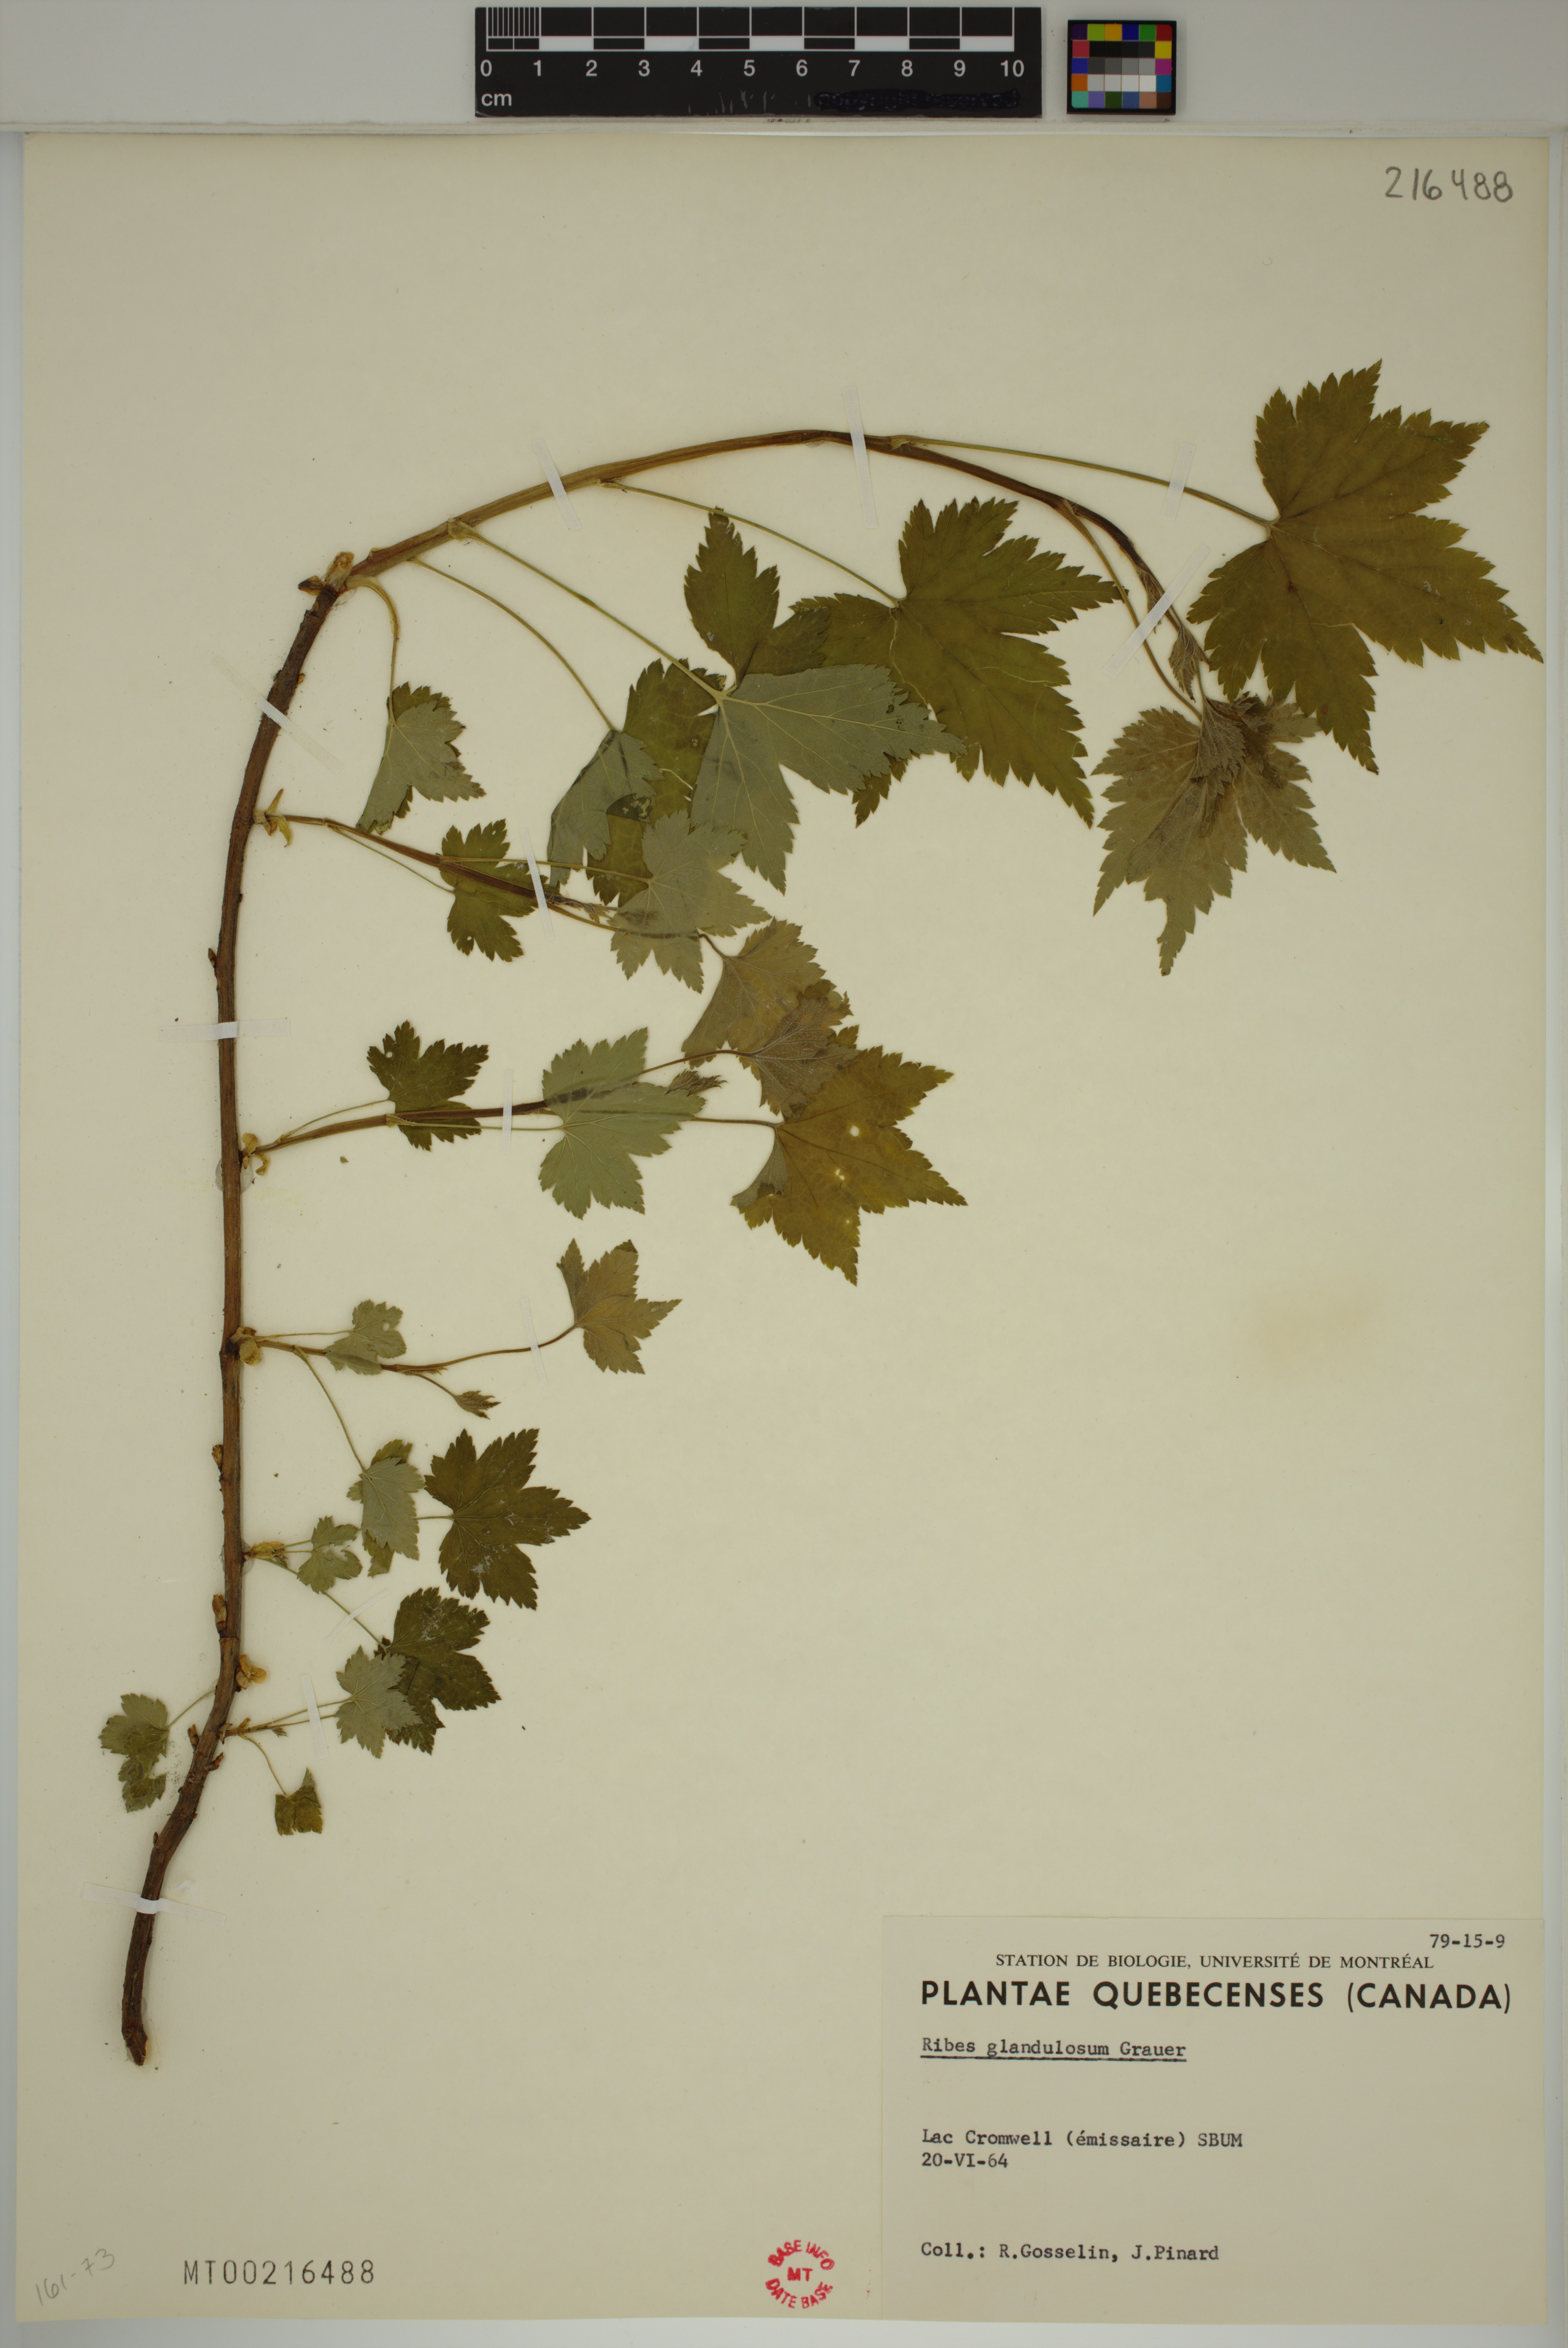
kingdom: Plantae
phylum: Tracheophyta
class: Magnoliopsida
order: Saxifragales
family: Grossulariaceae
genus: Ribes
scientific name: Ribes glandulosum
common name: Skunk currant
